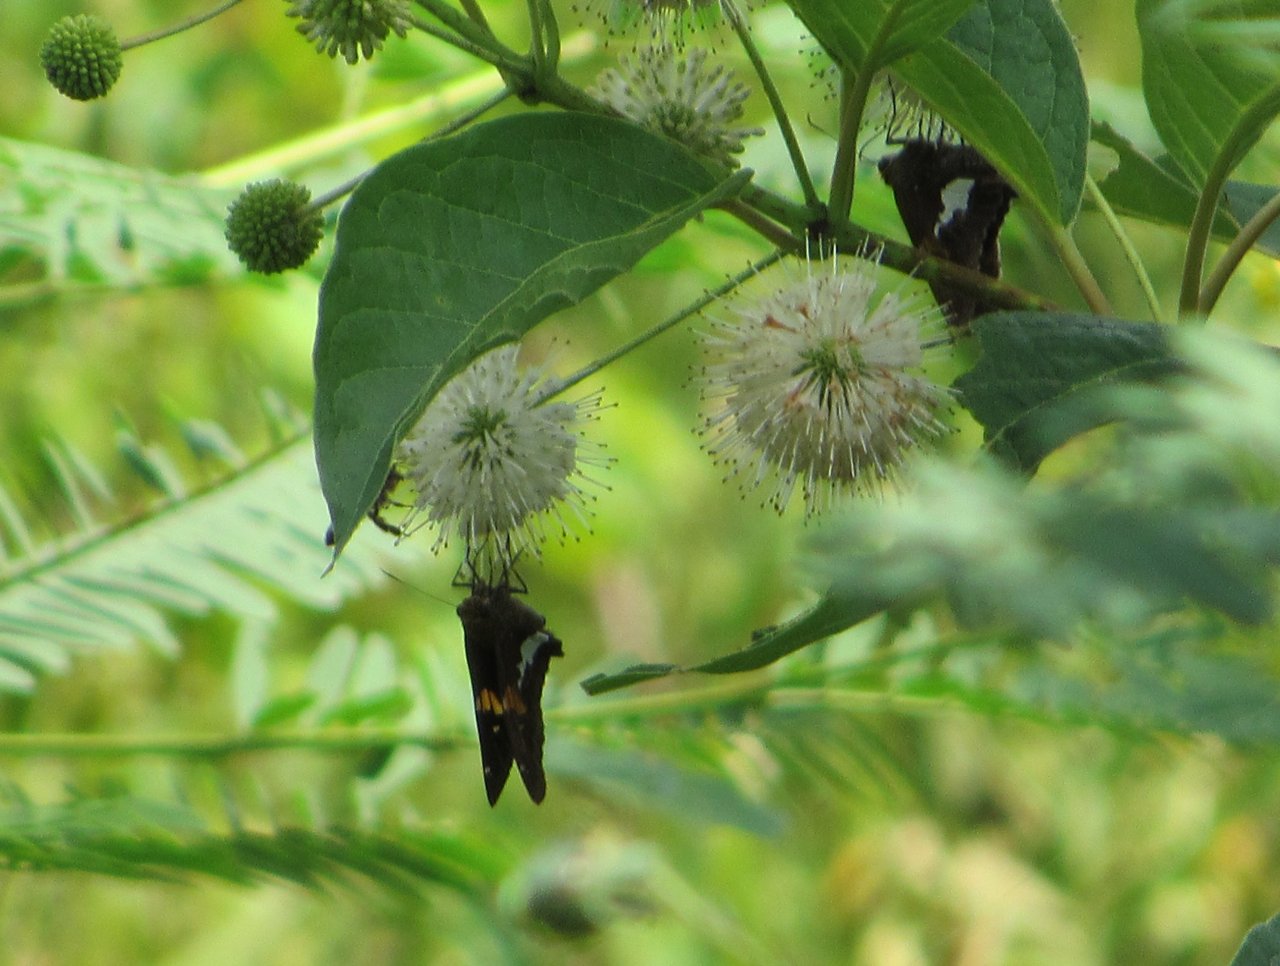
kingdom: Animalia
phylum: Arthropoda
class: Insecta
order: Lepidoptera
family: Hesperiidae
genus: Epargyreus
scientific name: Epargyreus clarus
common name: Silver-spotted Skipper
